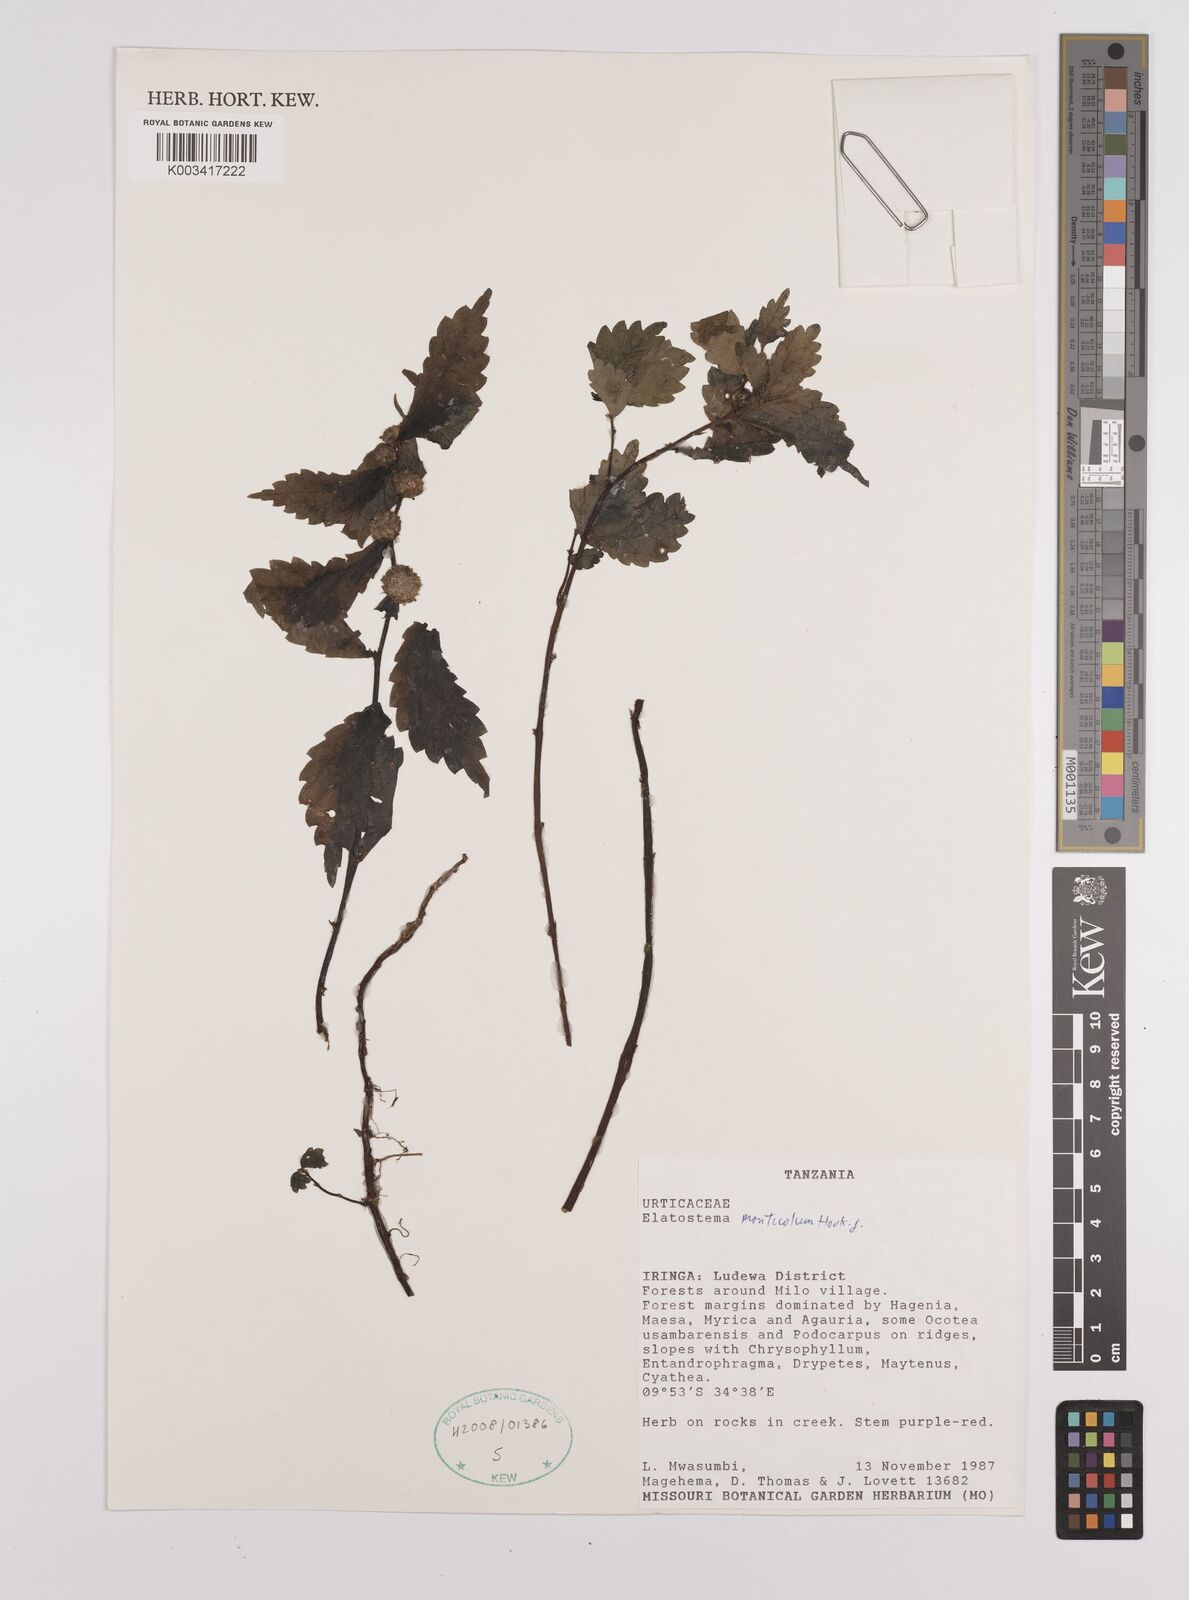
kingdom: Plantae
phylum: Tracheophyta
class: Magnoliopsida
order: Rosales
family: Urticaceae
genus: Elatostema
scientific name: Elatostema monticola
